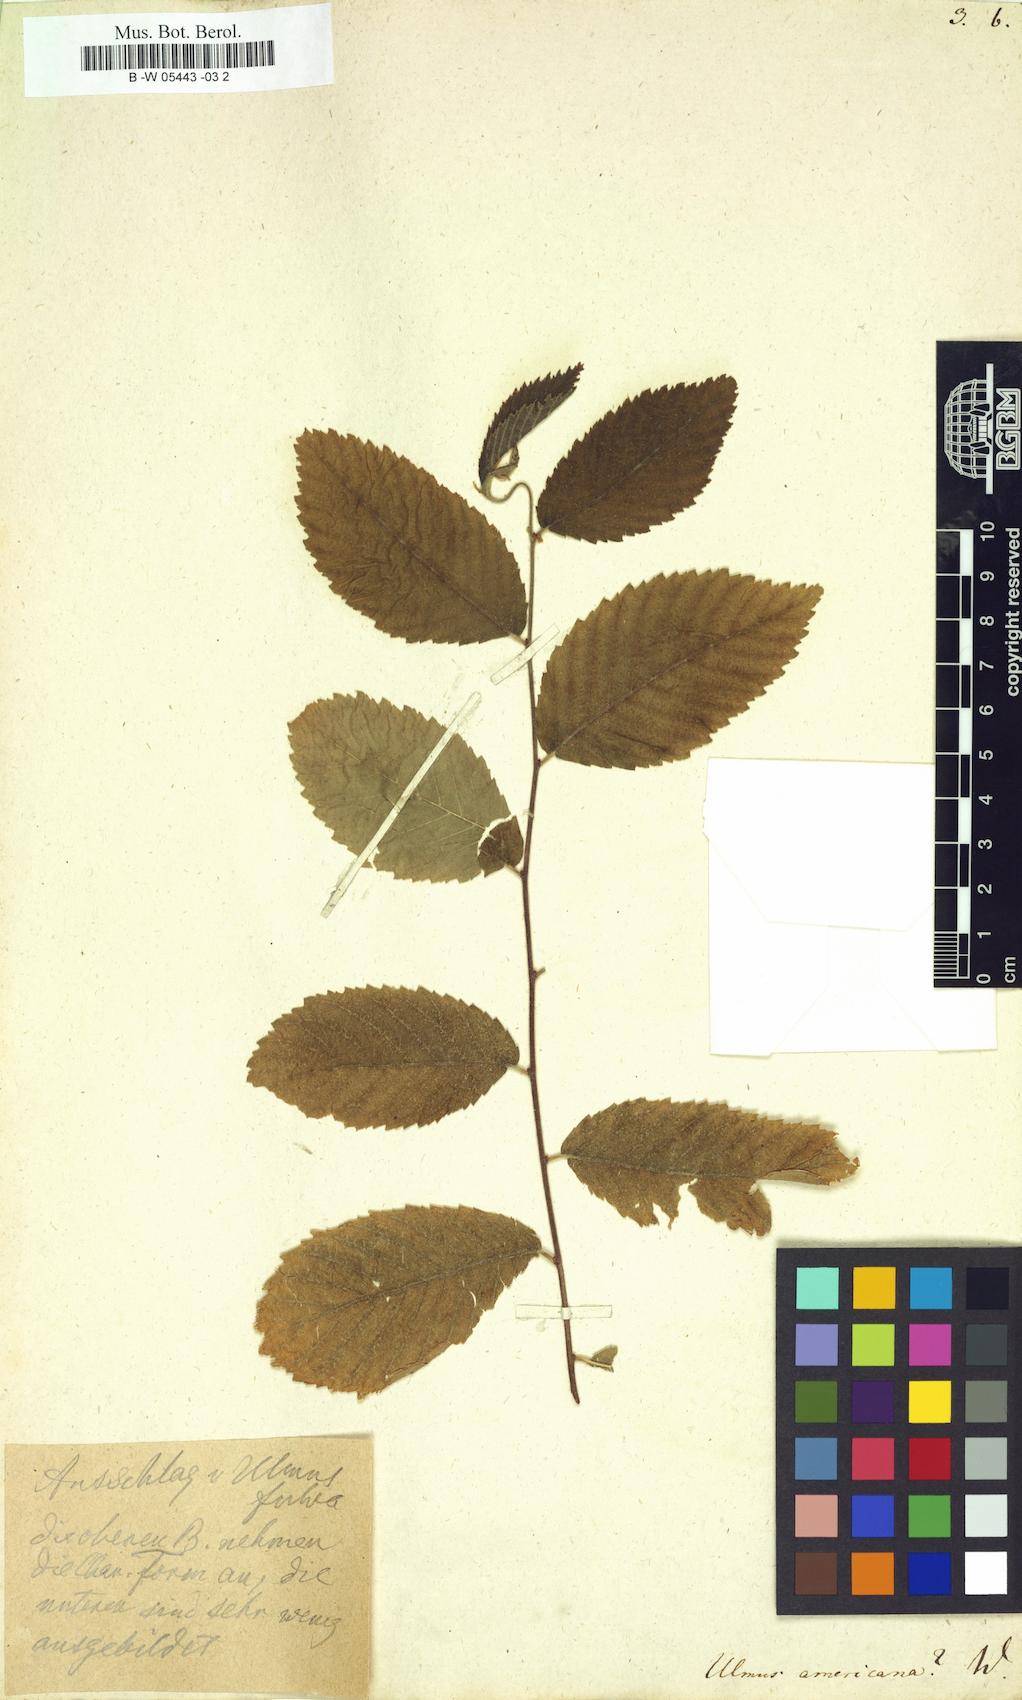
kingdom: Plantae
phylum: Tracheophyta
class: Magnoliopsida
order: Rosales
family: Ulmaceae
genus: Ulmus
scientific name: Ulmus americana
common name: American elm
